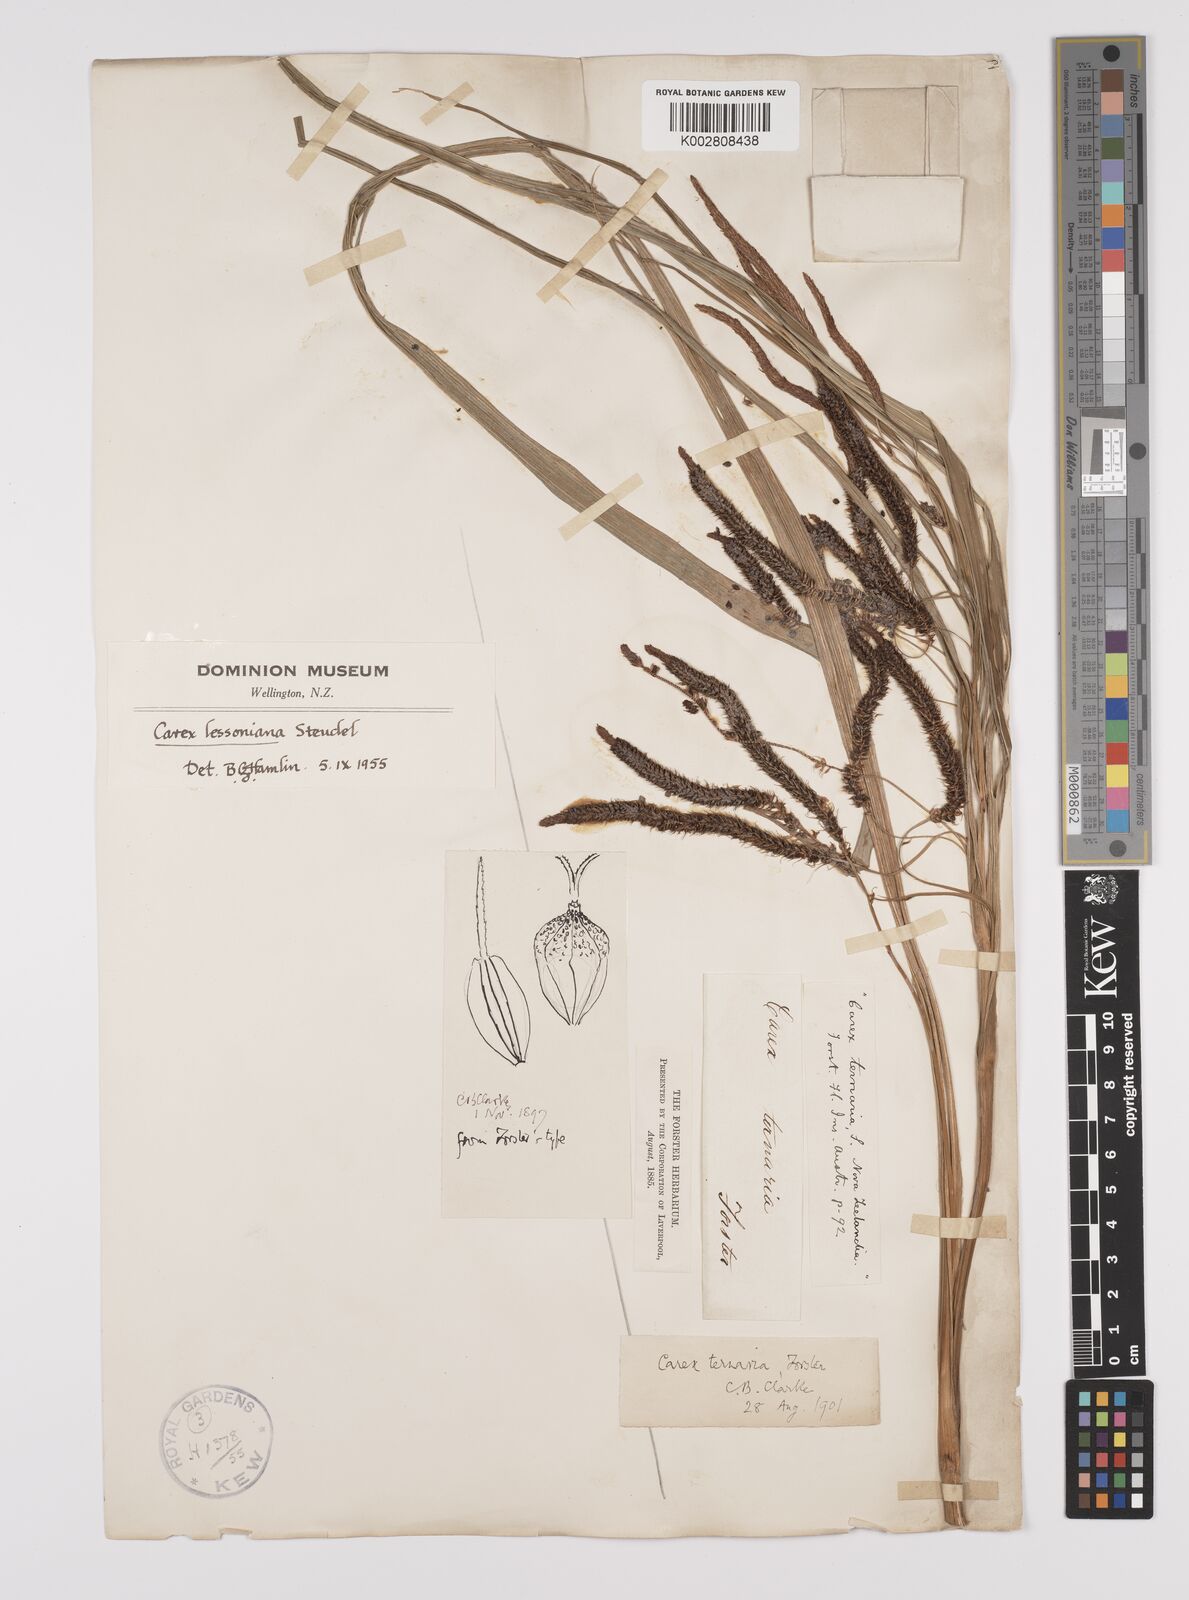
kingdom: Plantae
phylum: Tracheophyta
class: Liliopsida
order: Poales
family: Cyperaceae
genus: Carex
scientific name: Carex lessoniana
